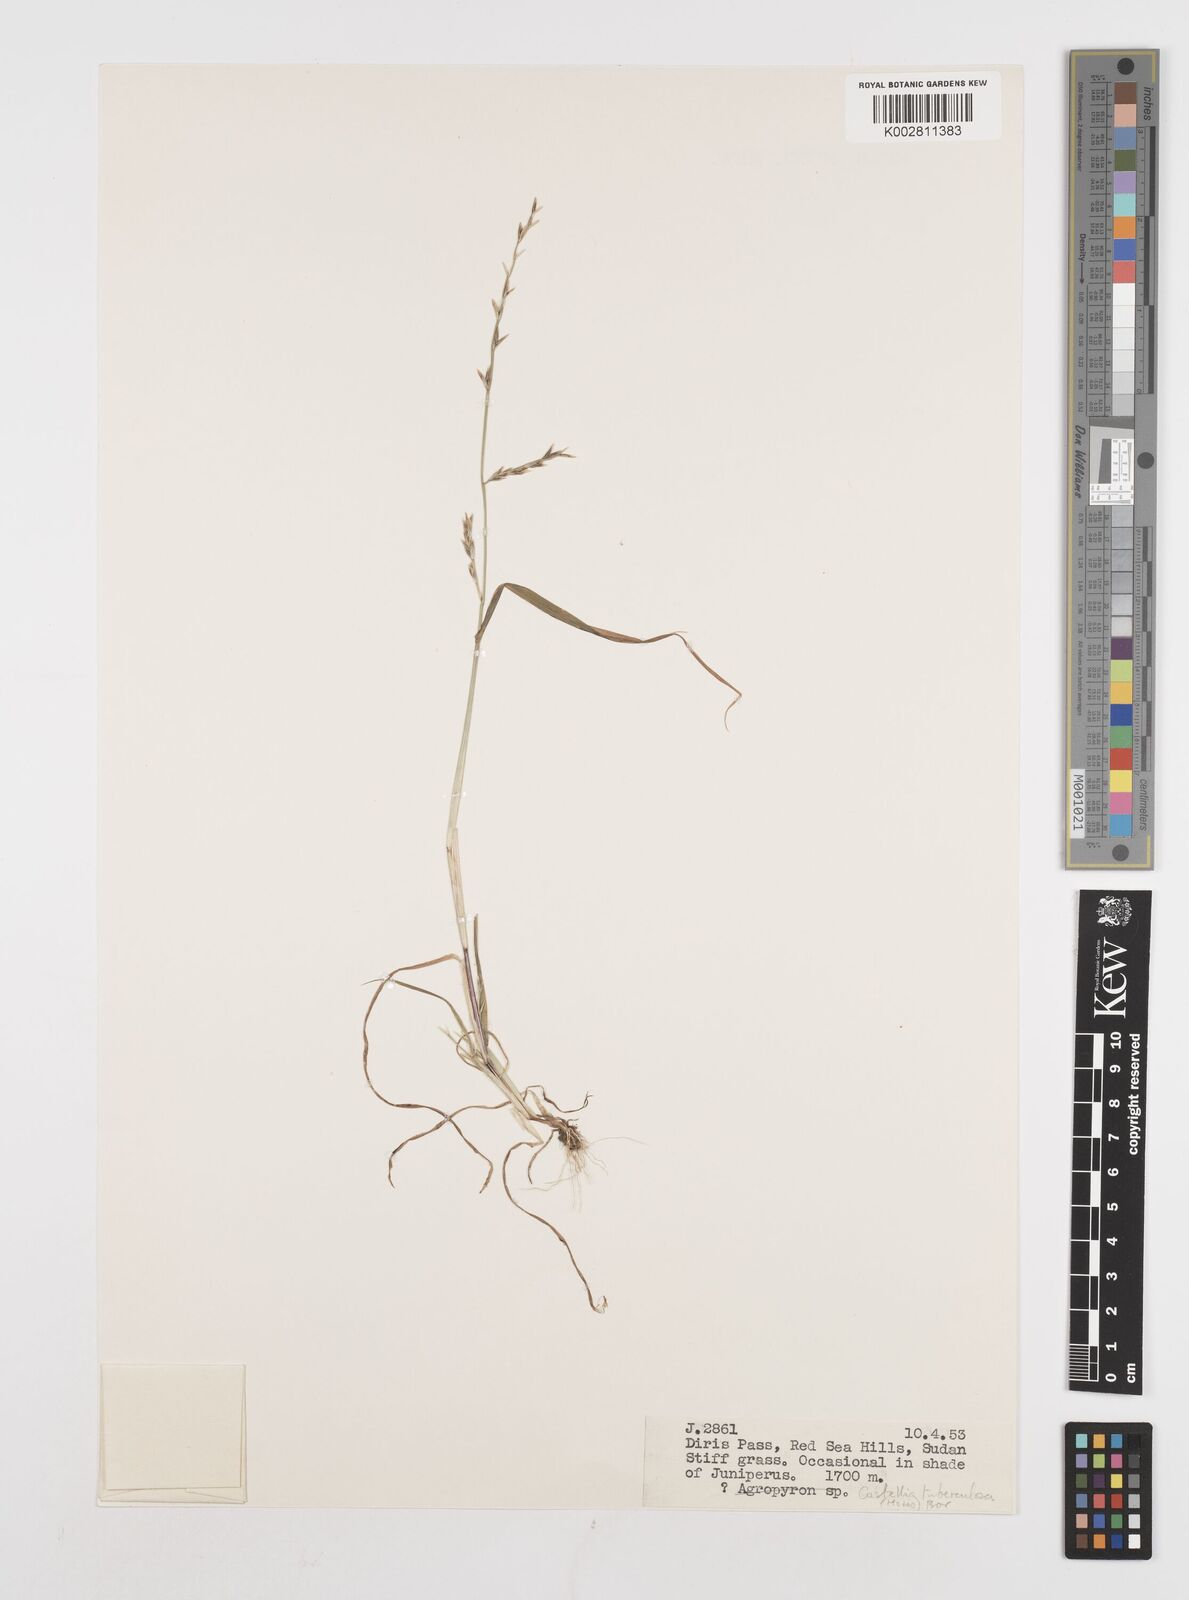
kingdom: Plantae
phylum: Tracheophyta
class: Liliopsida
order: Poales
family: Poaceae
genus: Castellia
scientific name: Castellia tuberculosa
